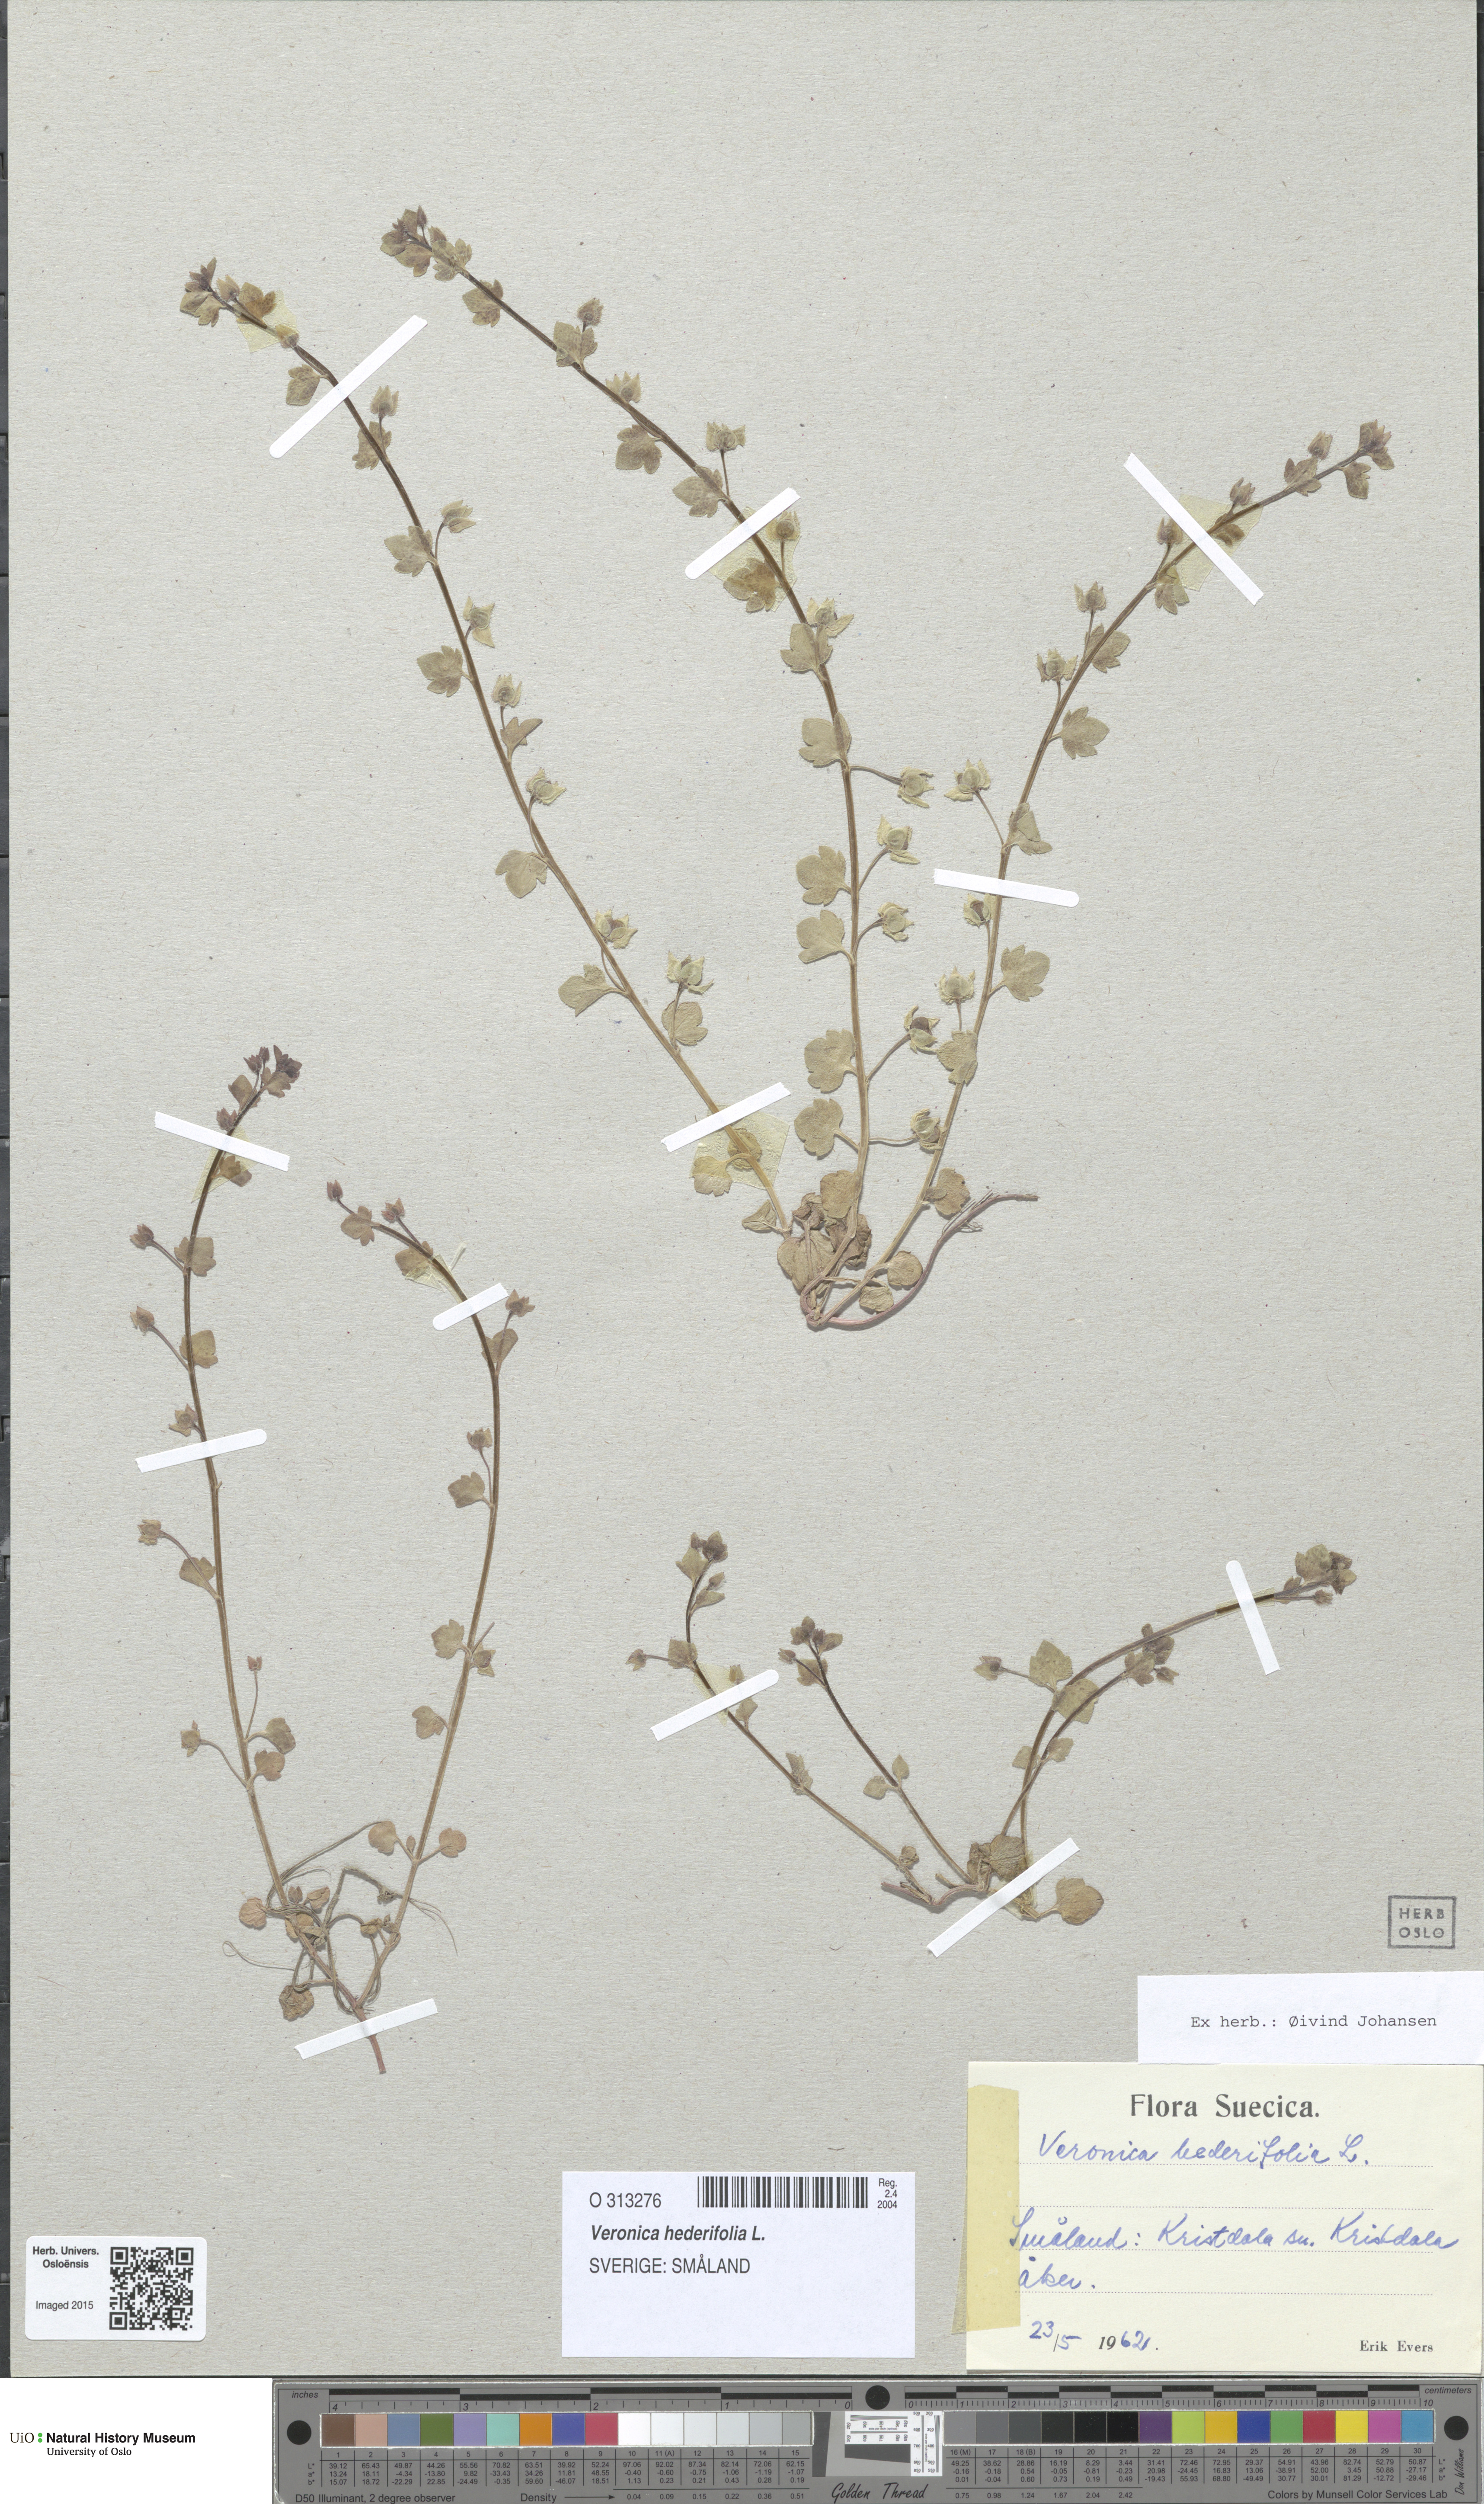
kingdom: Plantae
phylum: Tracheophyta
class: Magnoliopsida
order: Lamiales
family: Plantaginaceae
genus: Veronica
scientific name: Veronica hederifolia
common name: Ivy-leaved speedwell
